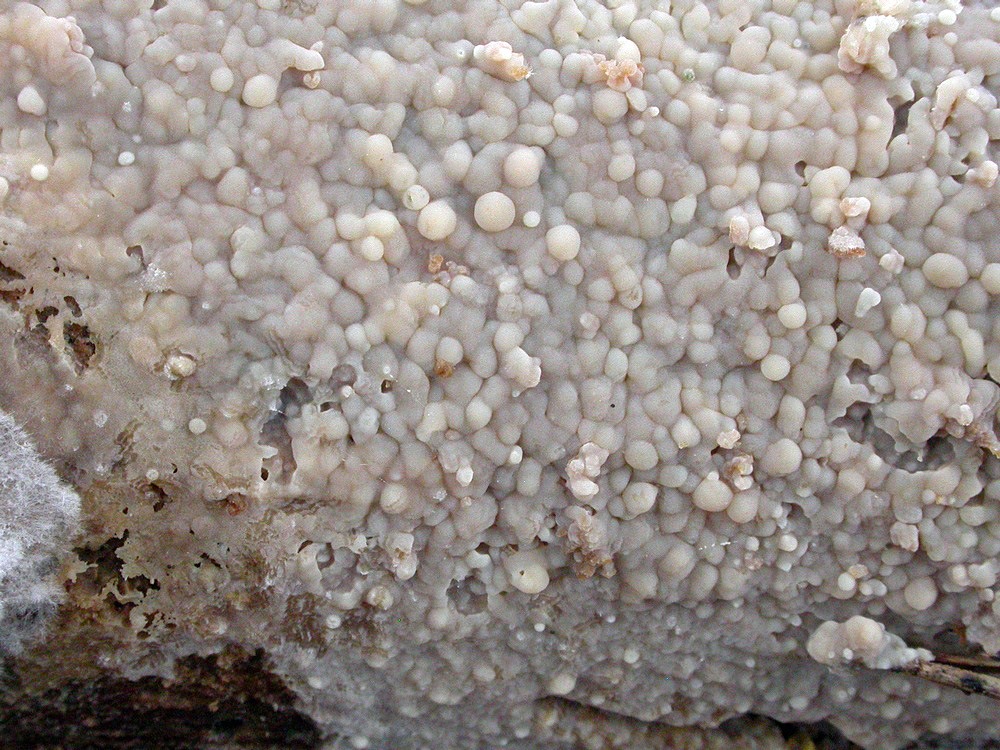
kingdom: Fungi
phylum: Basidiomycota
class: Agaricomycetes
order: Agaricales
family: Radulomycetaceae
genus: Radulomyces
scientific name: Radulomyces confluens
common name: glat naftalinskind
